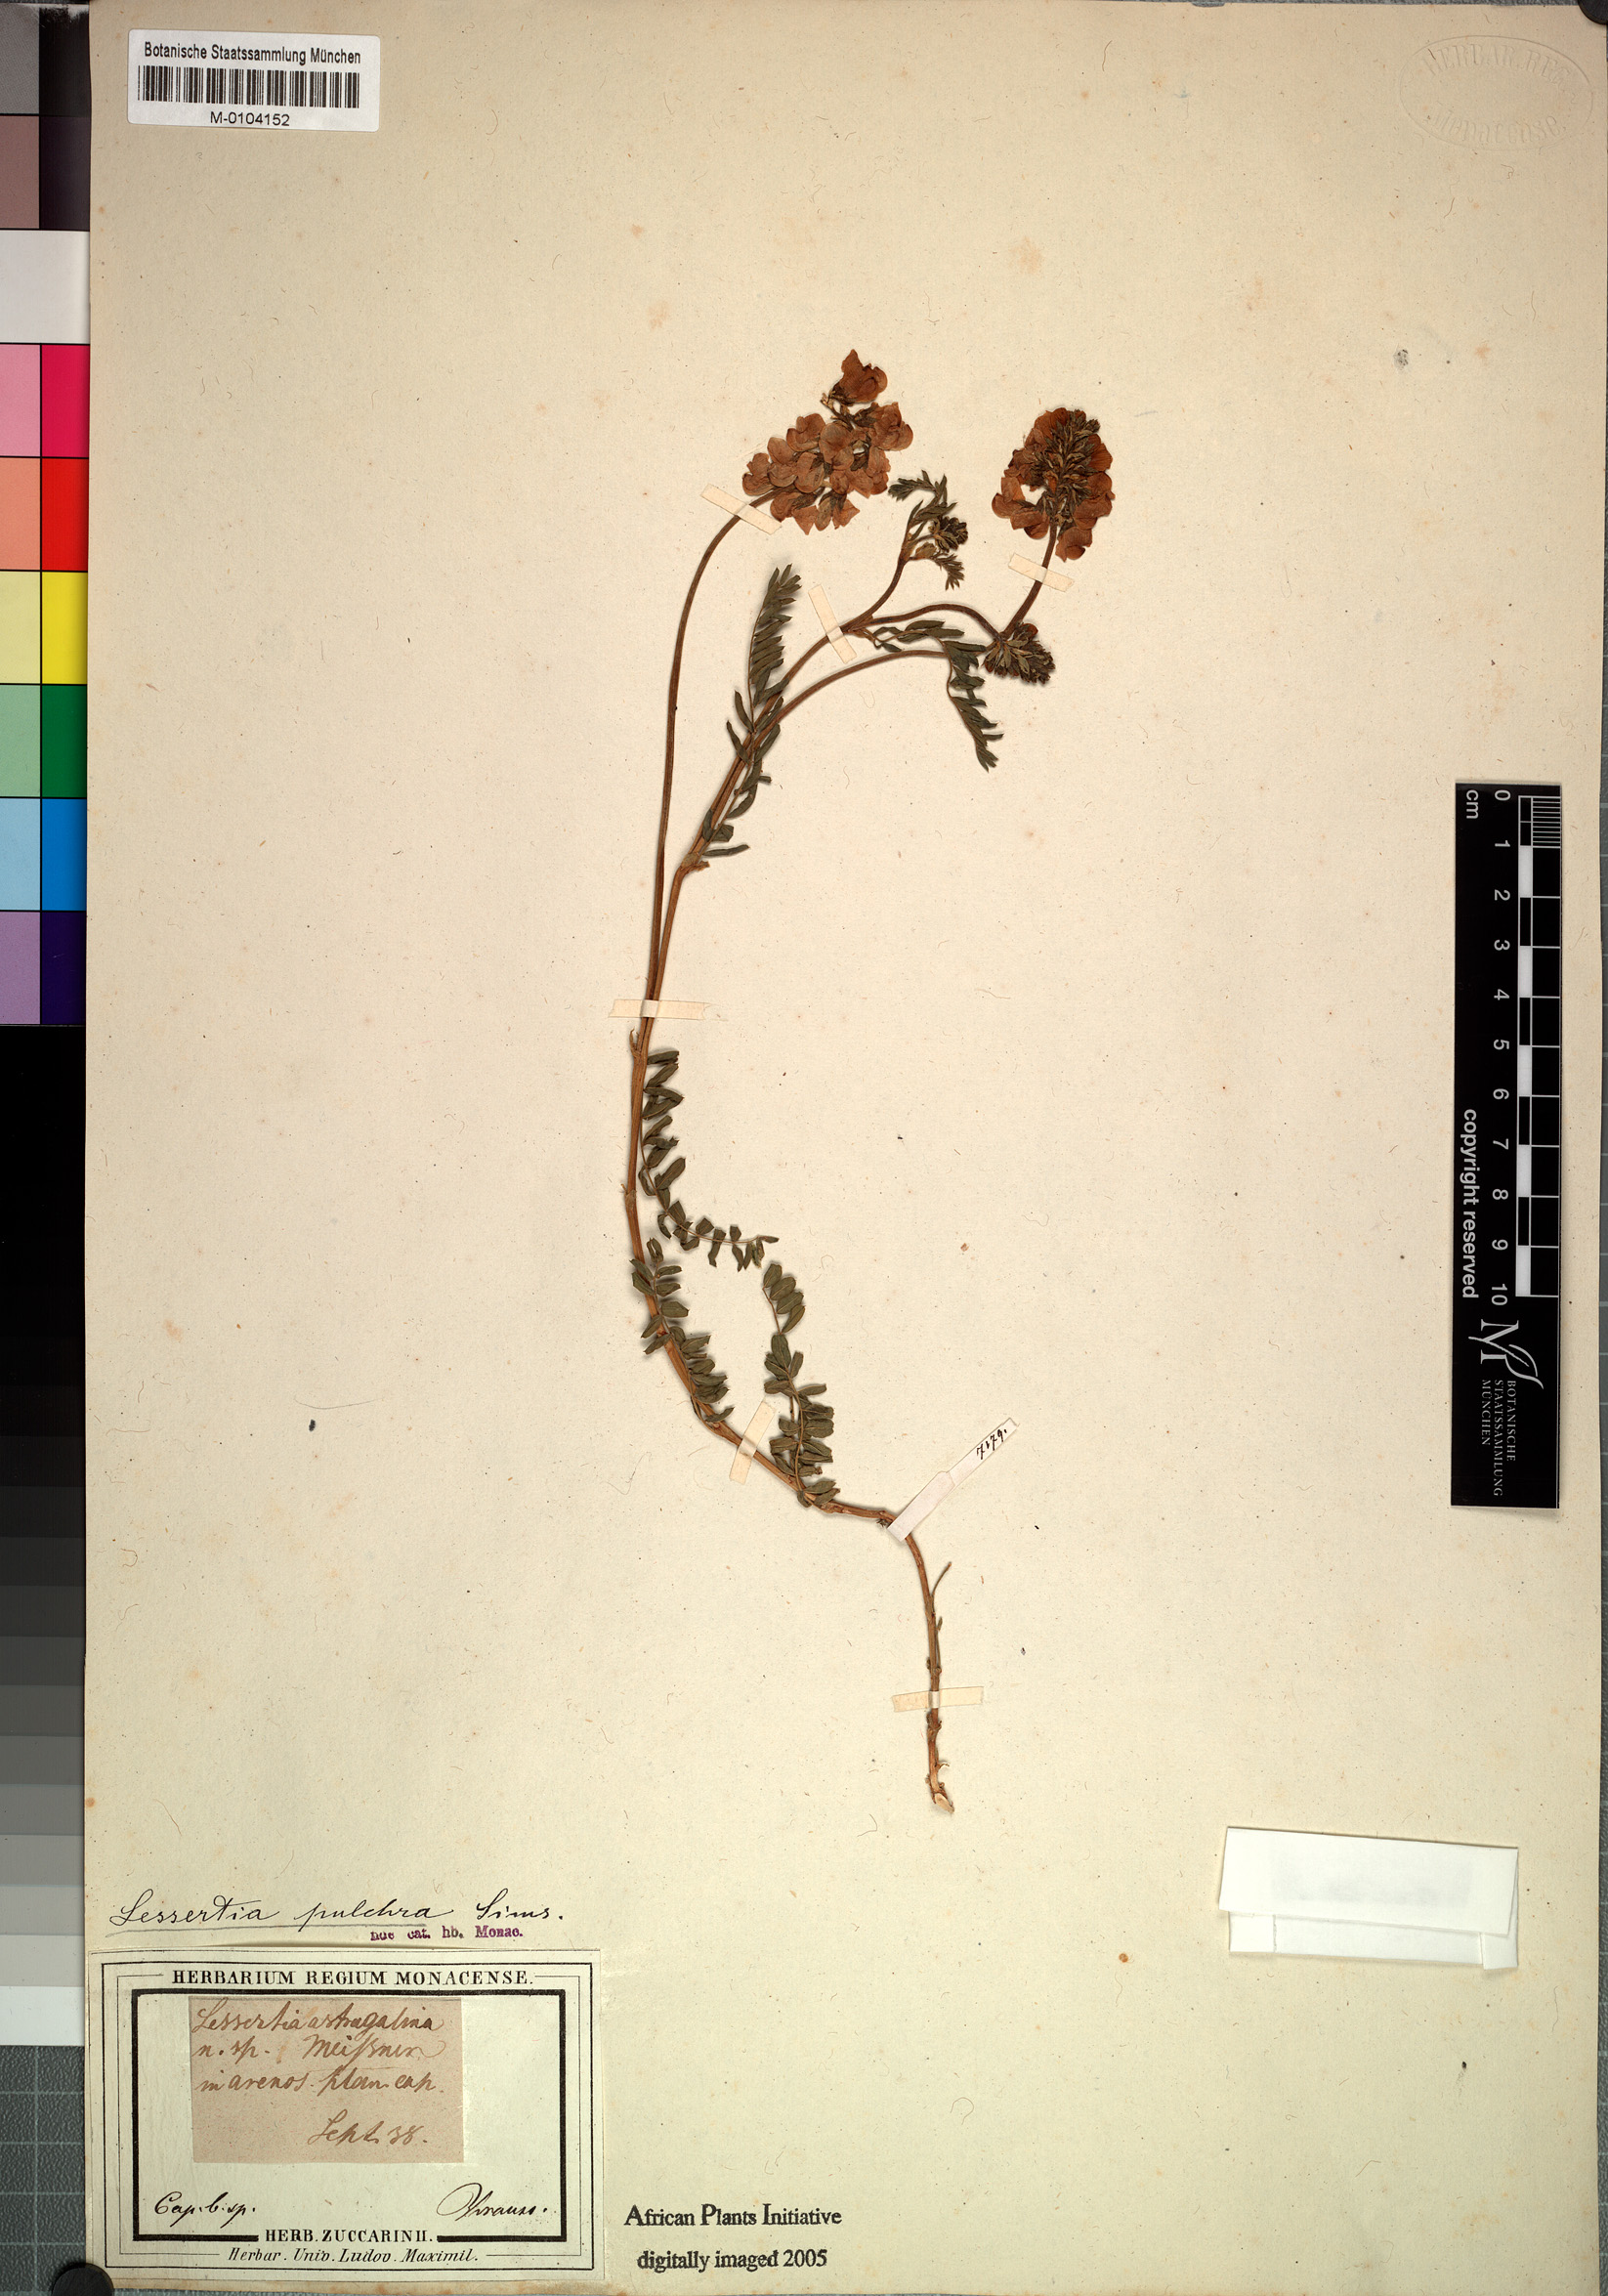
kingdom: Plantae
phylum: Tracheophyta
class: Magnoliopsida
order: Fabales
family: Fabaceae
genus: Lessertia
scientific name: Lessertia capensis
